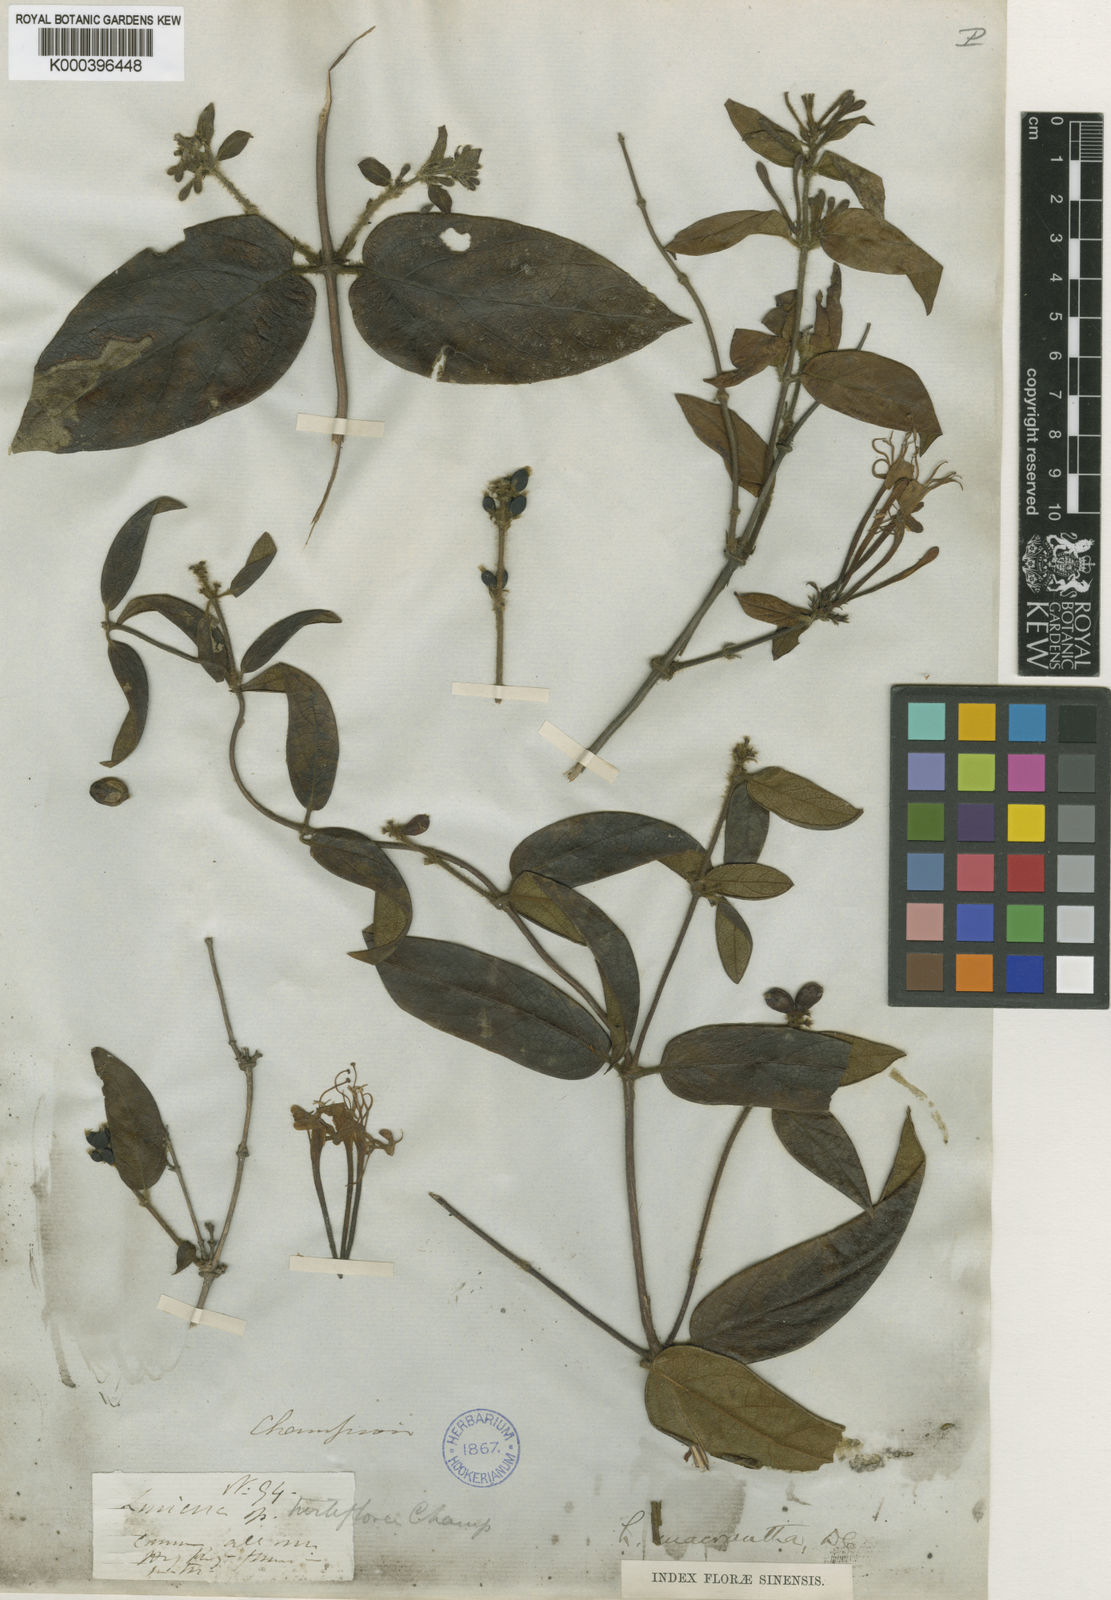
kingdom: Plantae
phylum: Tracheophyta
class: Magnoliopsida
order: Dipsacales
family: Caprifoliaceae
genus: Lonicera
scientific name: Lonicera macrantha
